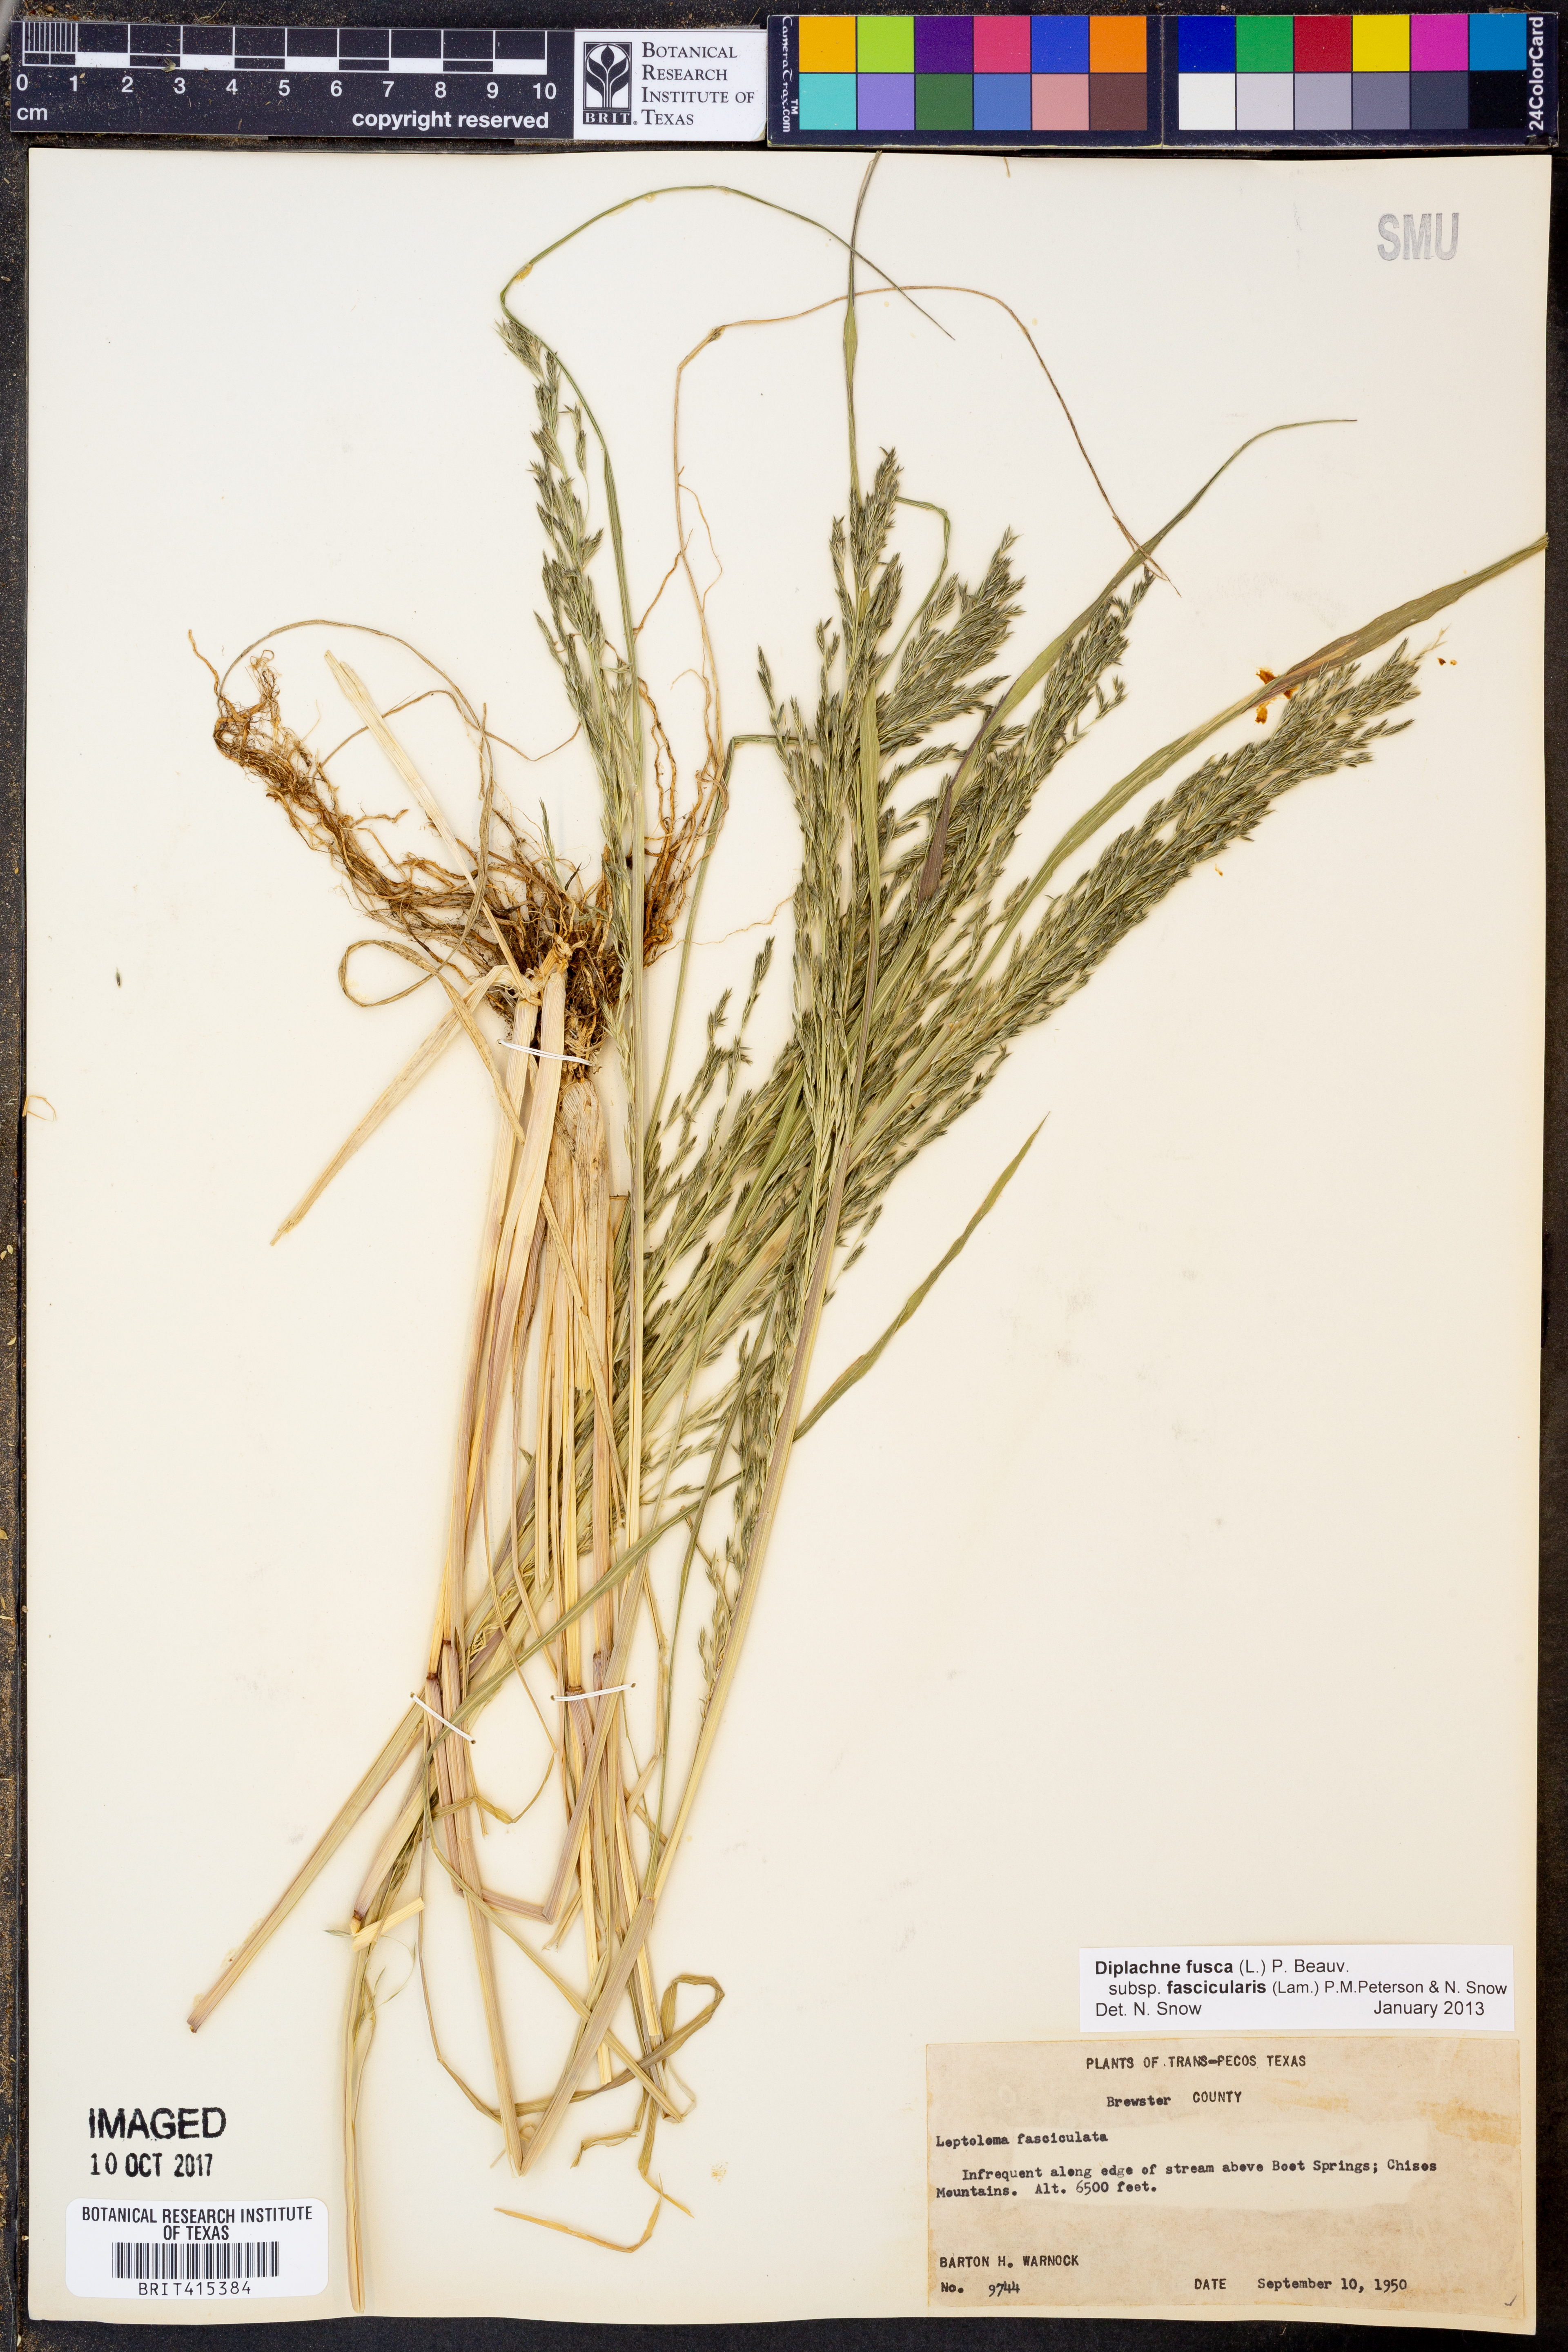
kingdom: Plantae
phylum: Tracheophyta
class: Liliopsida
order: Poales
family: Poaceae
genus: Diplachne
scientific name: Diplachne fusca
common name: Brown beetle grass
